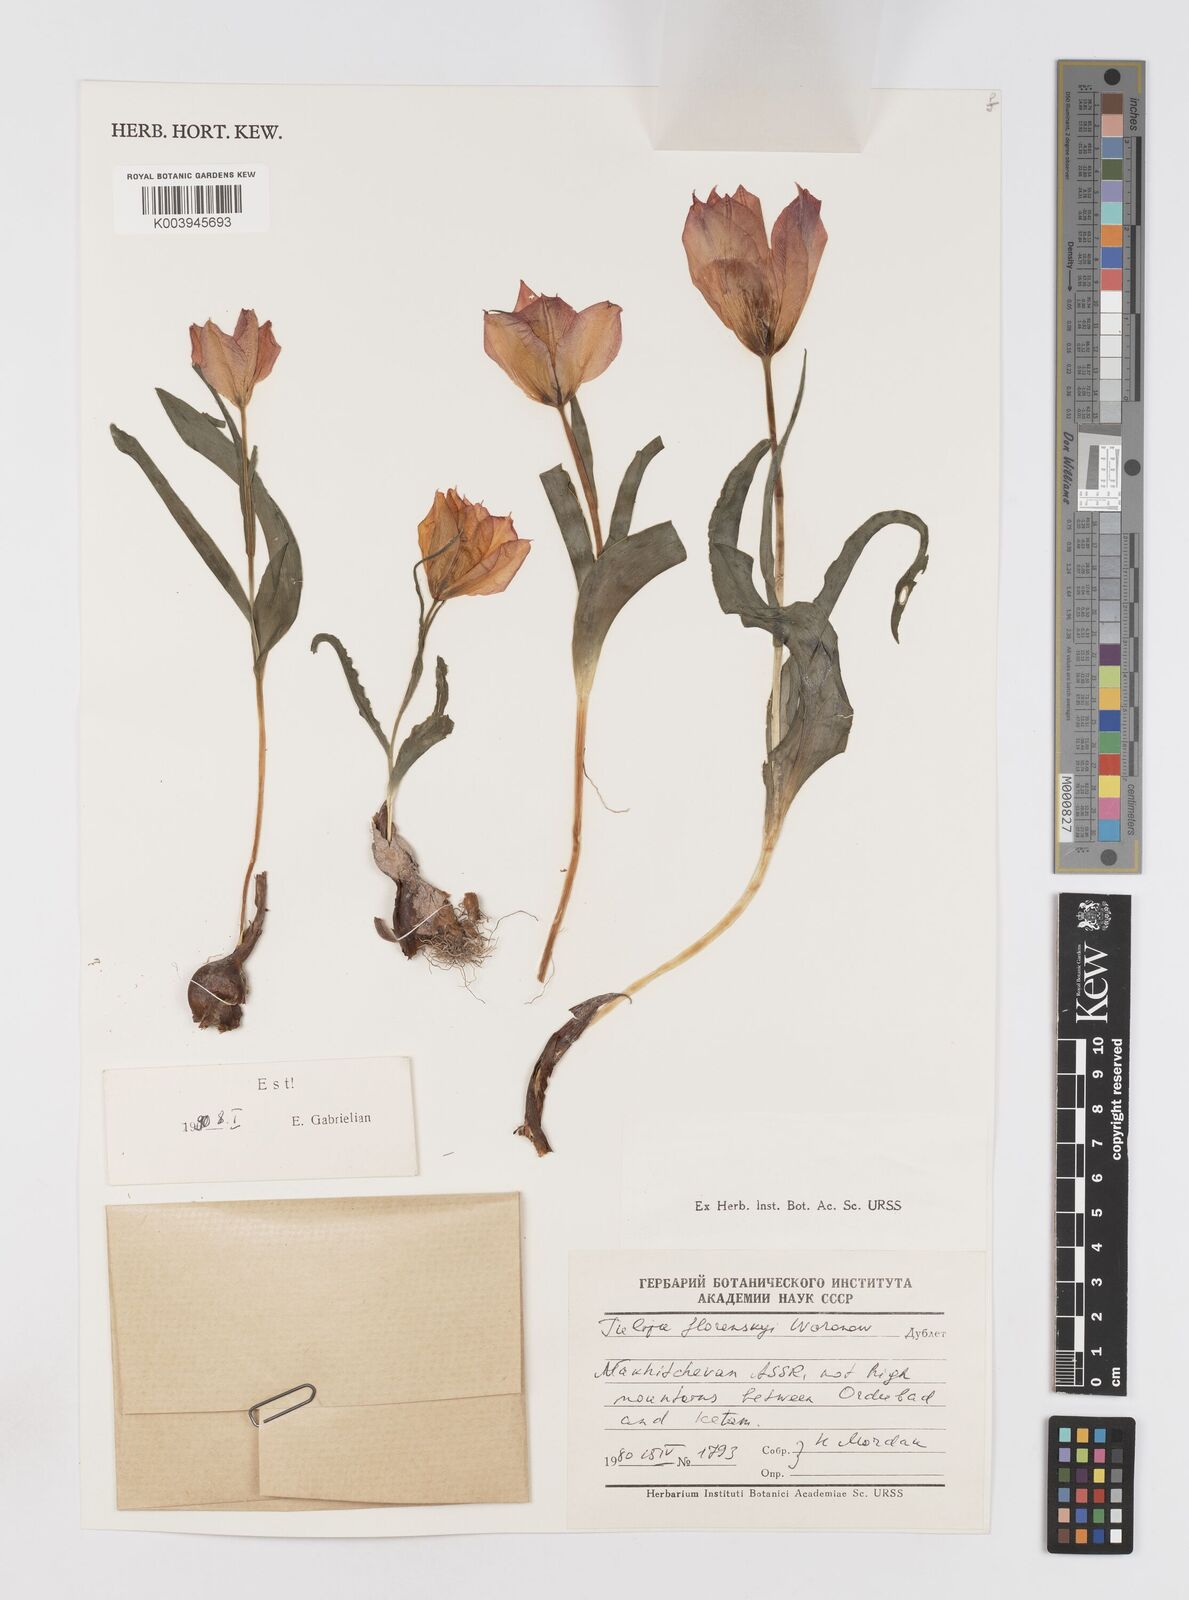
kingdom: Plantae
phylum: Tracheophyta
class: Liliopsida
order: Liliales
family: Liliaceae
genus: Tulipa
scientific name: Tulipa armena
